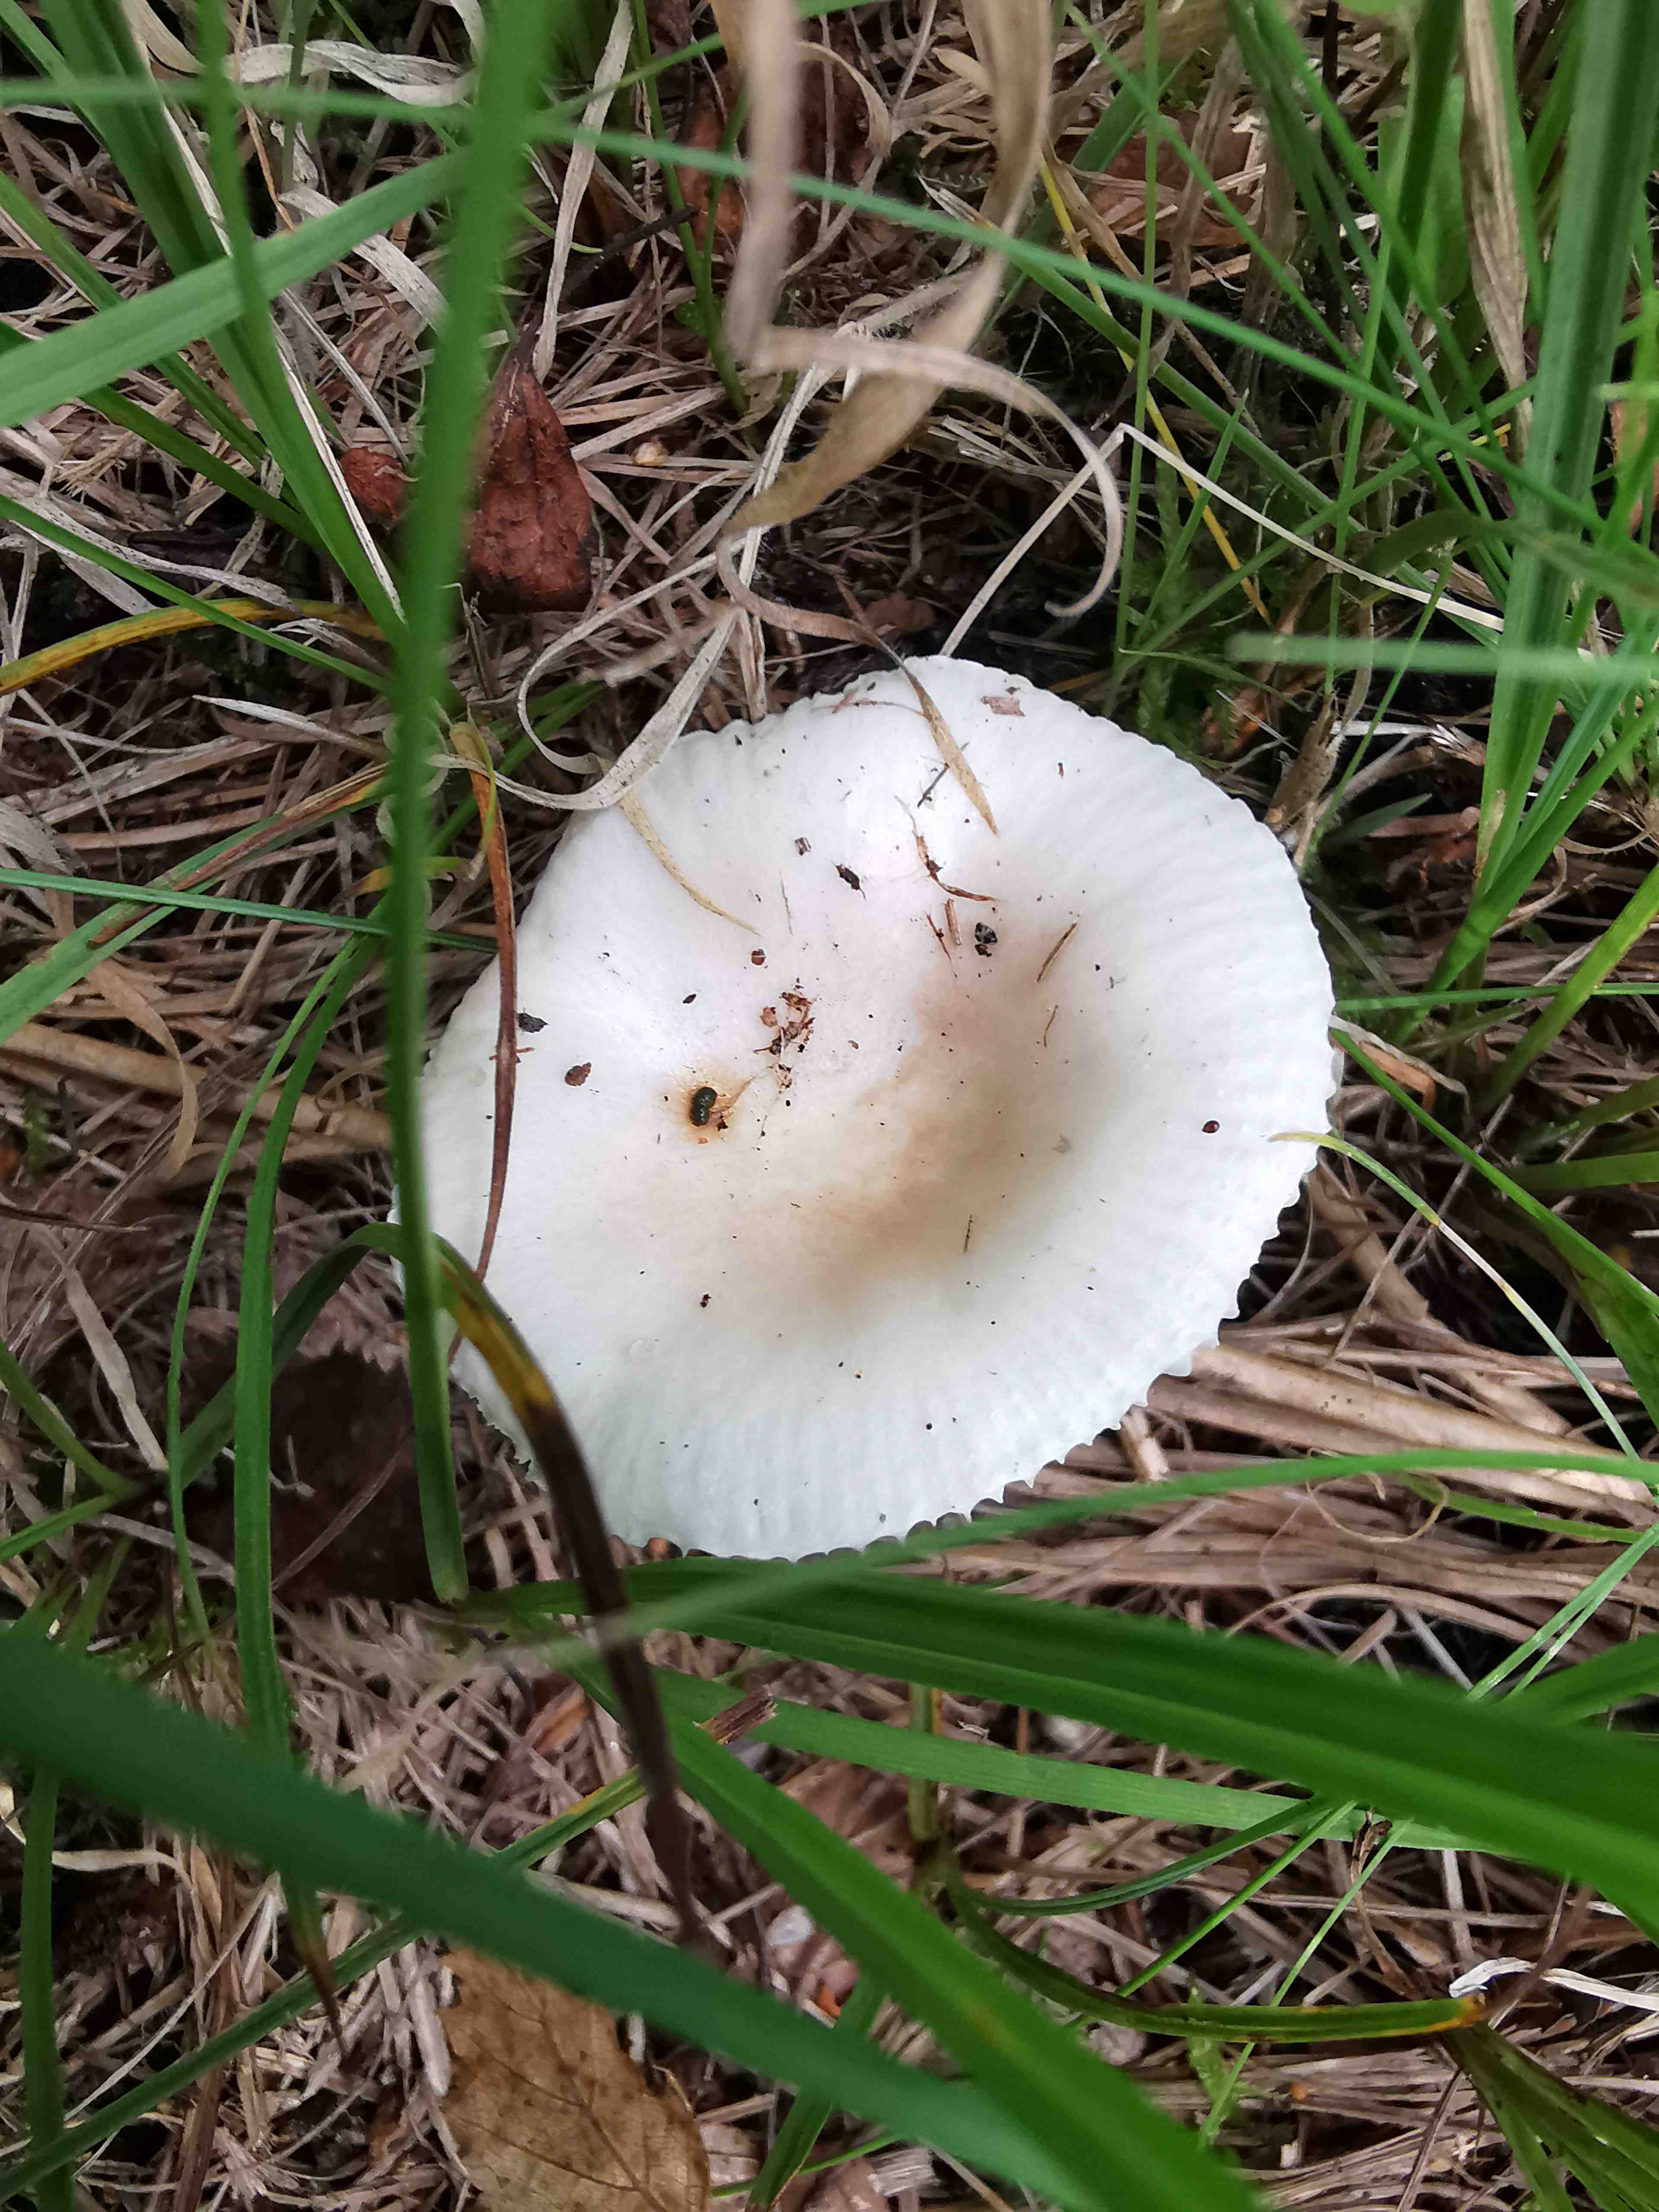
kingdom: Fungi
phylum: Basidiomycota
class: Agaricomycetes
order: Russulales
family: Russulaceae
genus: Russula
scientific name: Russula betularum
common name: bleg gift-skørhat
